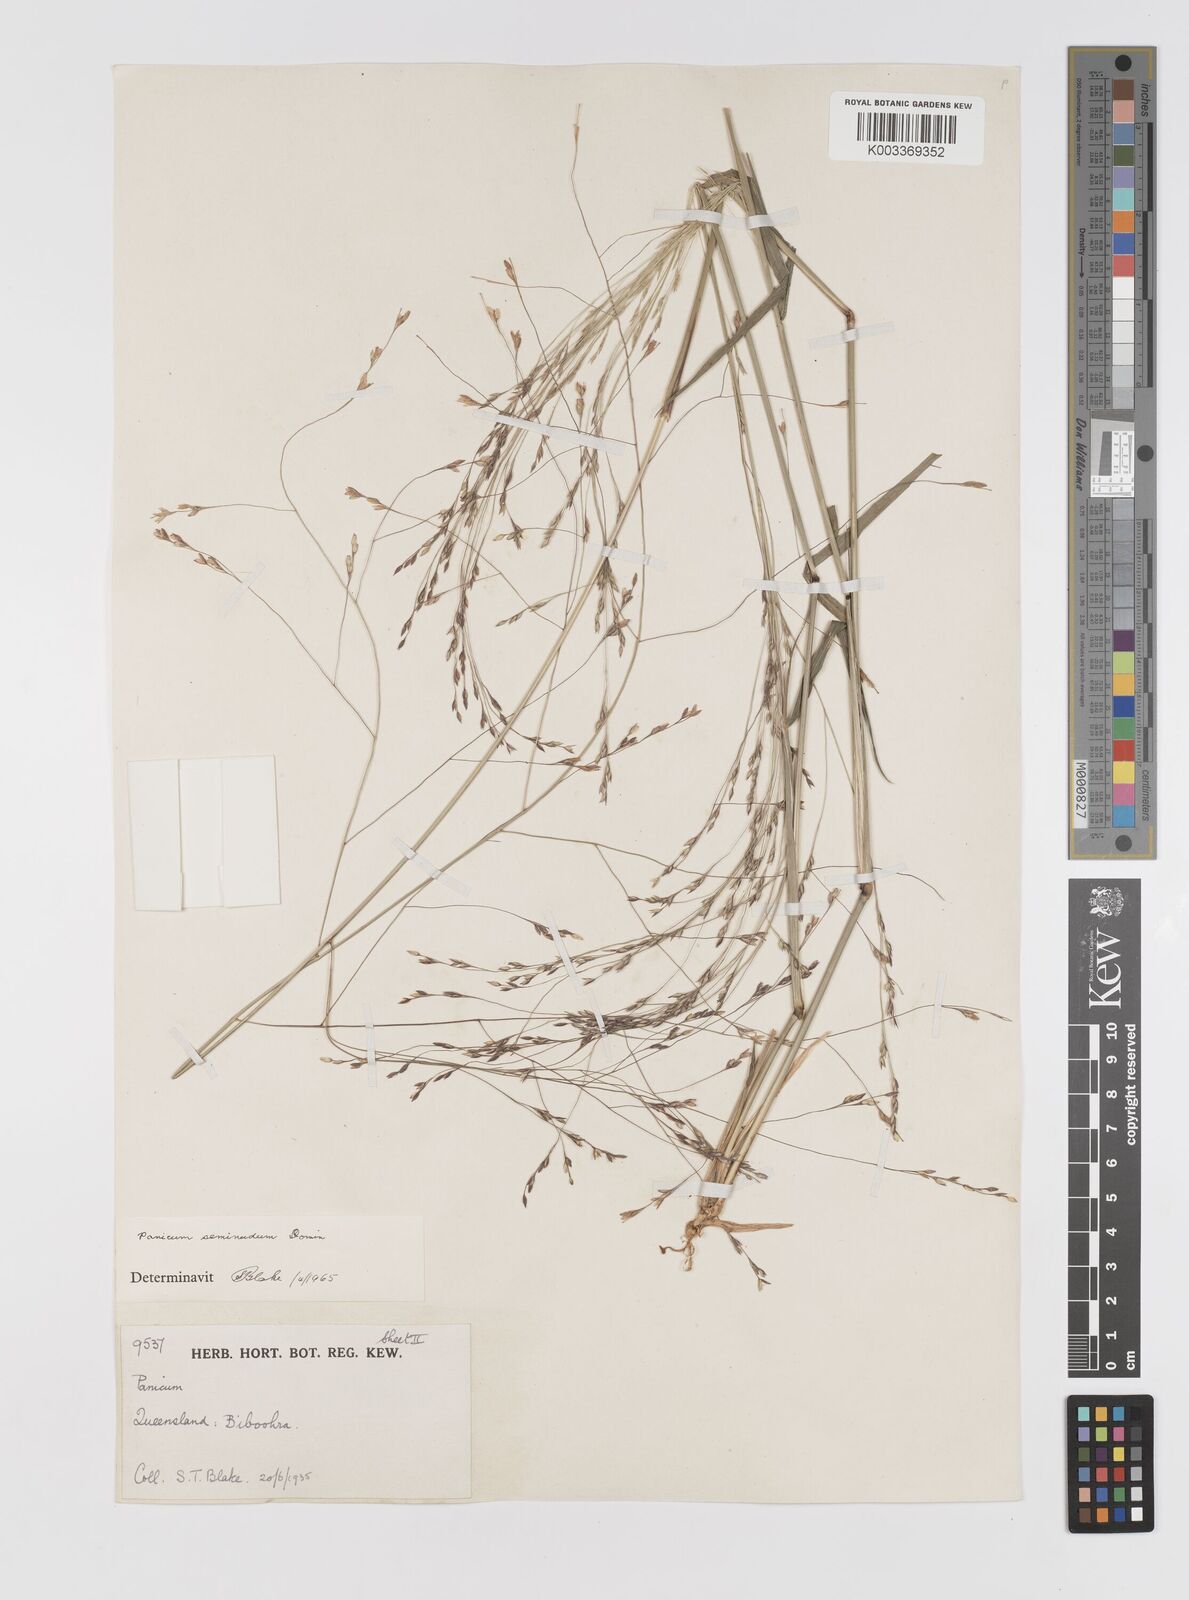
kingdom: Plantae
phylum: Tracheophyta
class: Liliopsida
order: Poales
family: Poaceae
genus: Panicum
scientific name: Panicum seminudum
